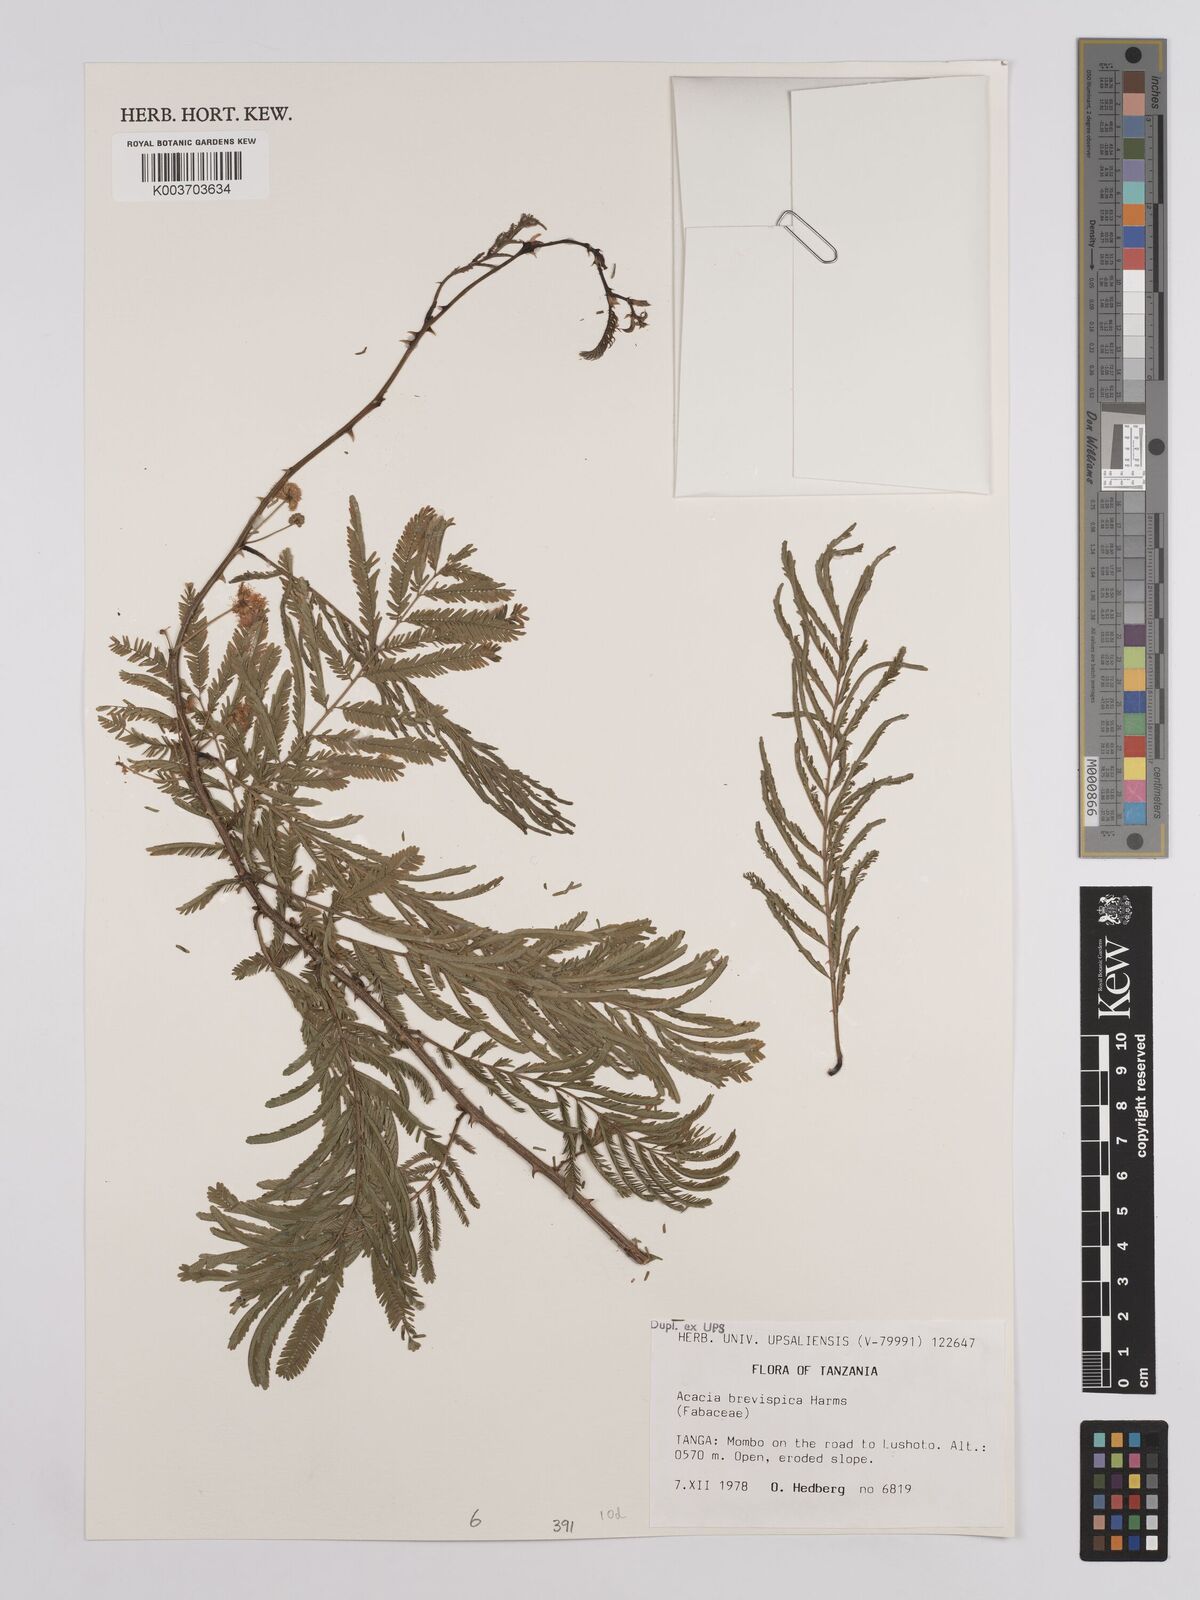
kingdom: Plantae
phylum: Tracheophyta
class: Magnoliopsida
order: Fabales
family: Fabaceae
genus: Senegalia
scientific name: Senegalia brevispica
